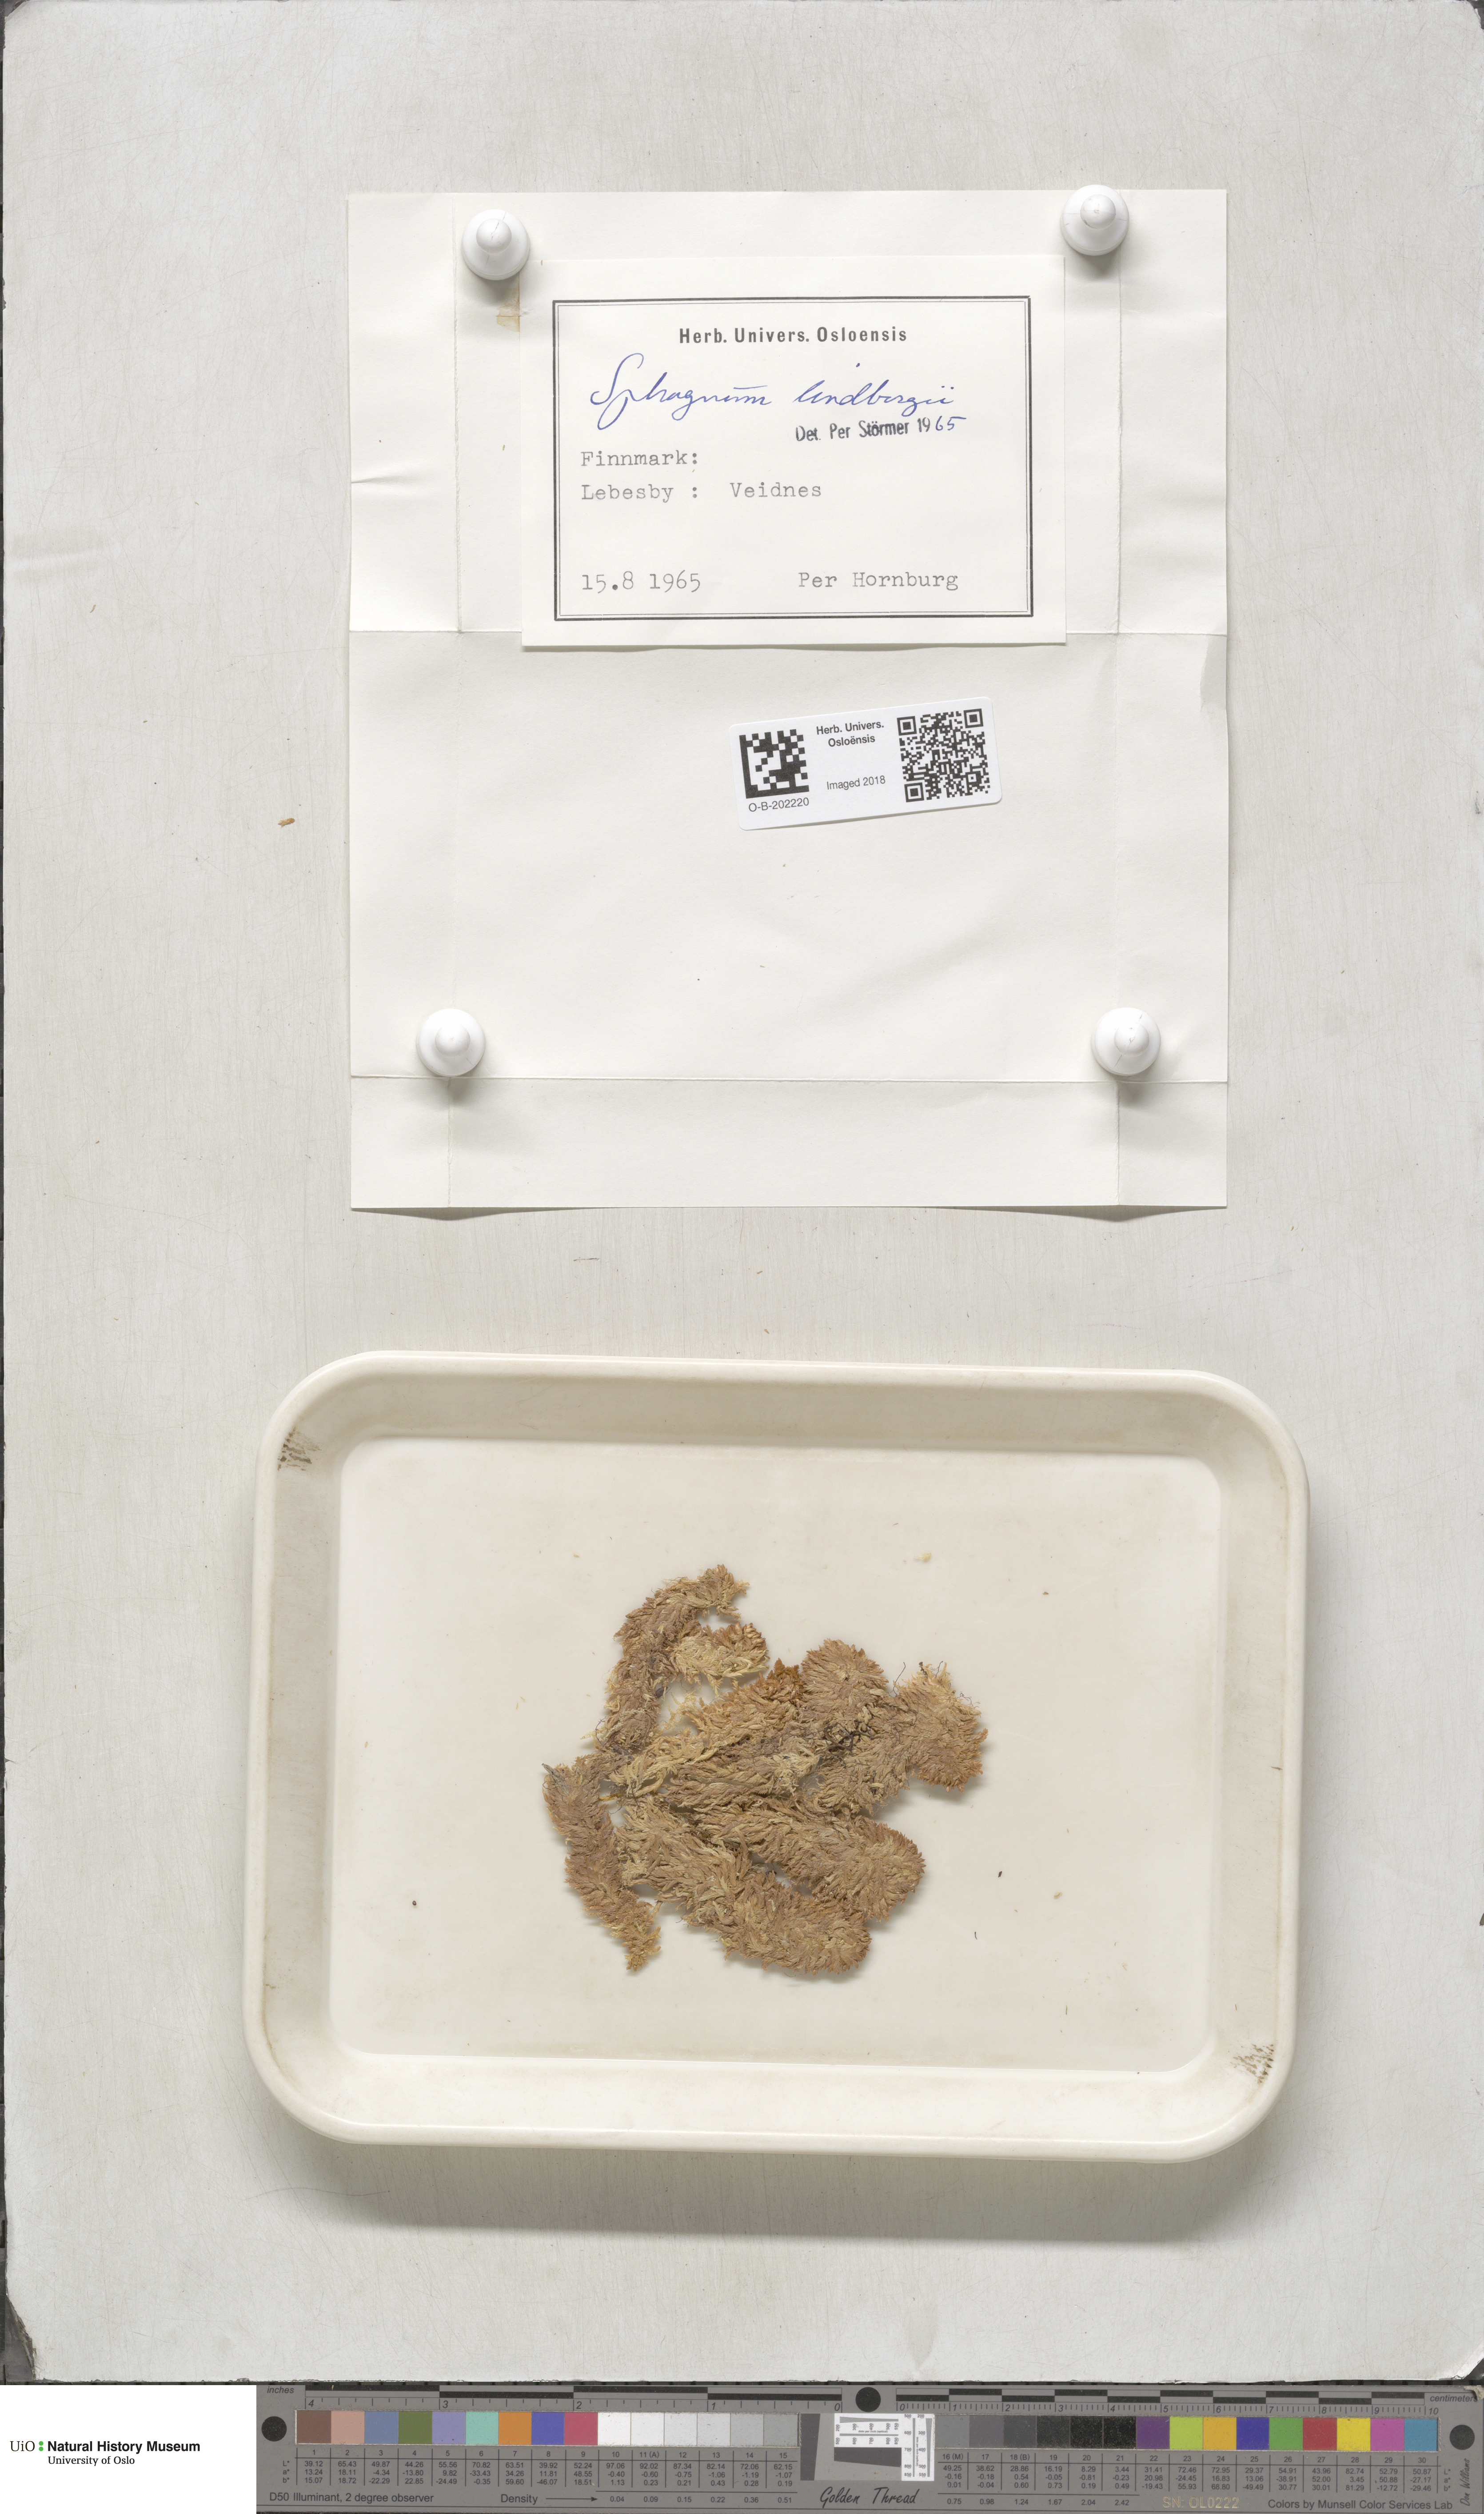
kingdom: Plantae
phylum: Bryophyta
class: Sphagnopsida
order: Sphagnales
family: Sphagnaceae
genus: Sphagnum
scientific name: Sphagnum lindbergii
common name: Lindberg's peat moss
